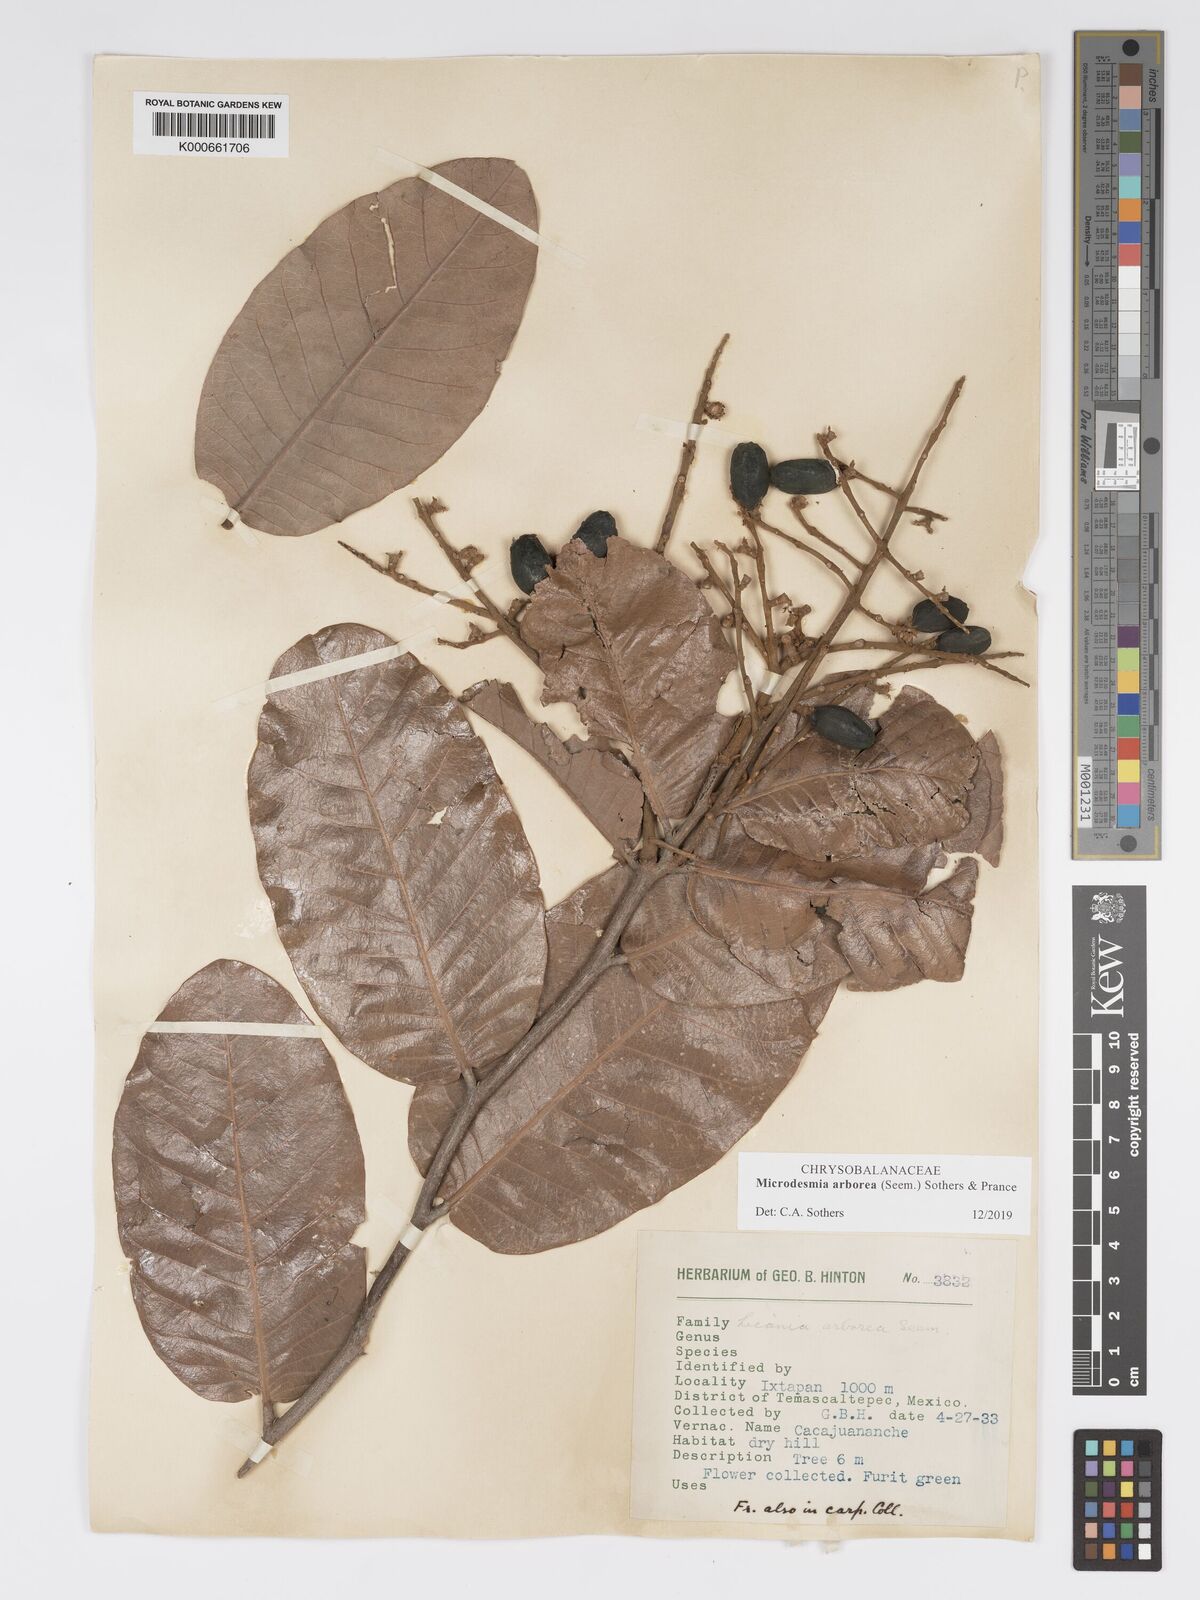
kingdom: Plantae
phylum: Tracheophyta
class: Magnoliopsida
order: Malpighiales
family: Chrysobalanaceae
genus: Licania
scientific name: Licania
